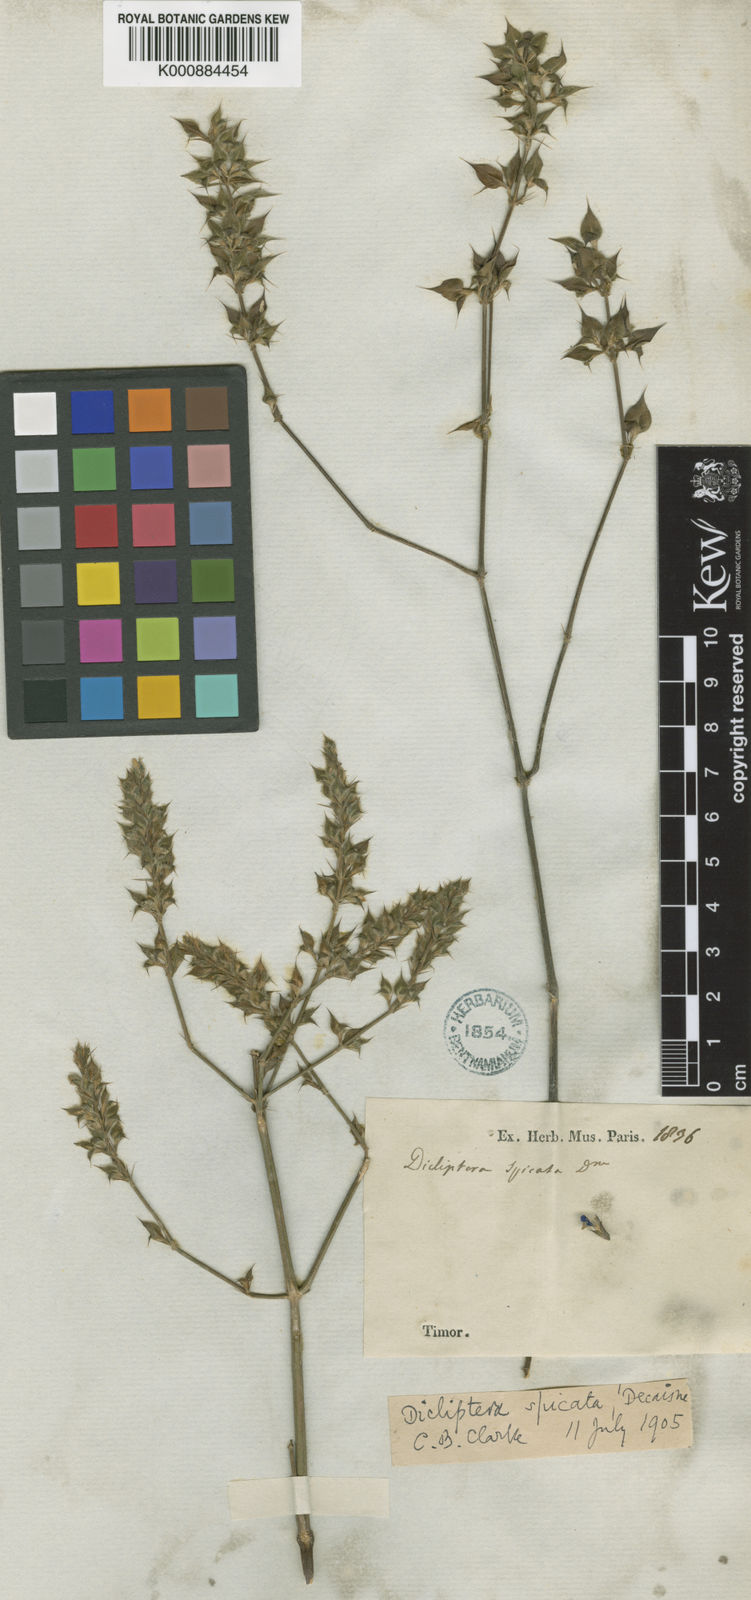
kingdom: Plantae
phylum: Tracheophyta
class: Magnoliopsida
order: Lamiales
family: Acanthaceae
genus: Dicliptera
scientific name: Dicliptera spicata
